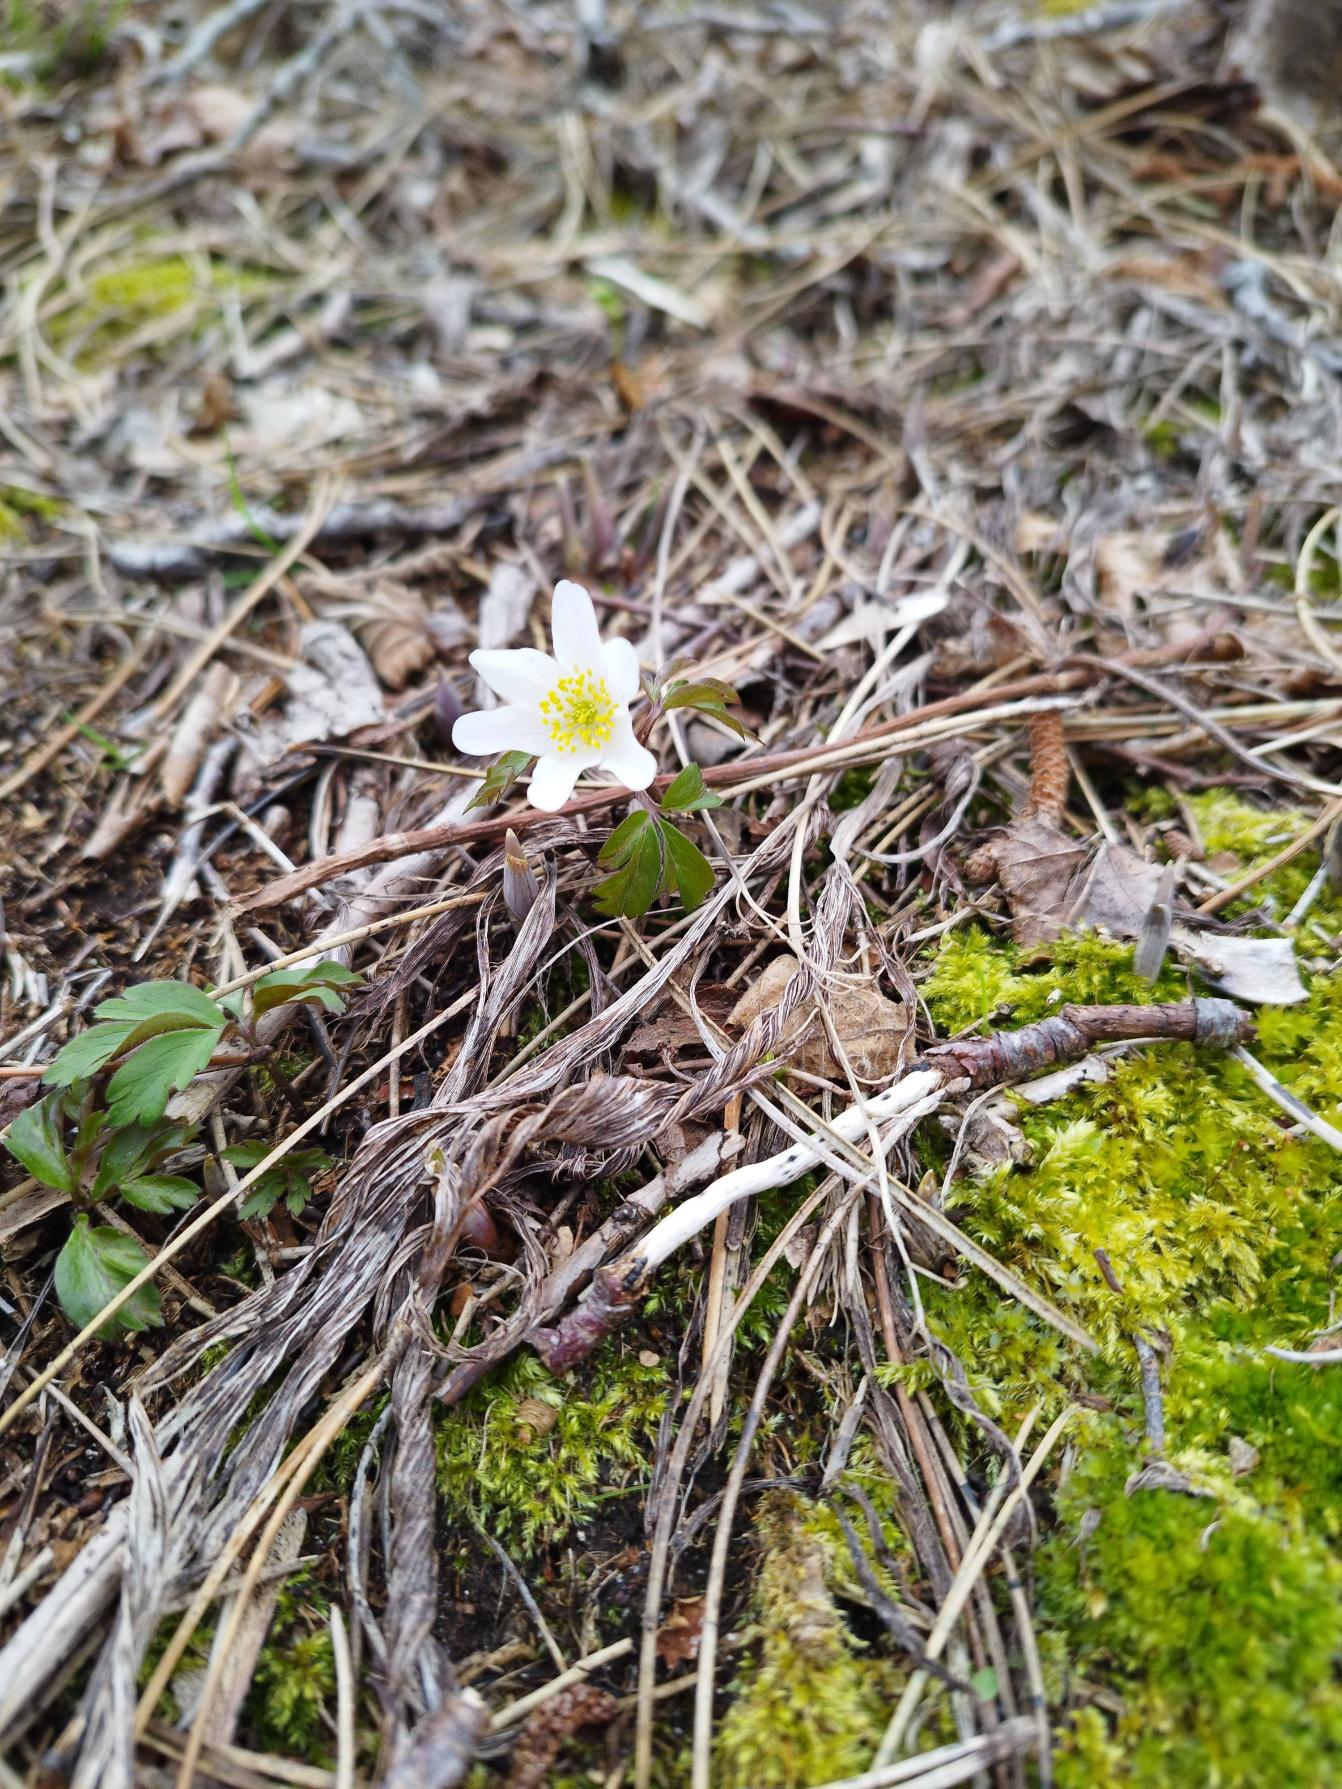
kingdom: Plantae
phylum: Tracheophyta
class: Magnoliopsida
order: Ranunculales
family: Ranunculaceae
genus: Anemone
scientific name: Anemone nemorosa
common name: Hvid anemone
